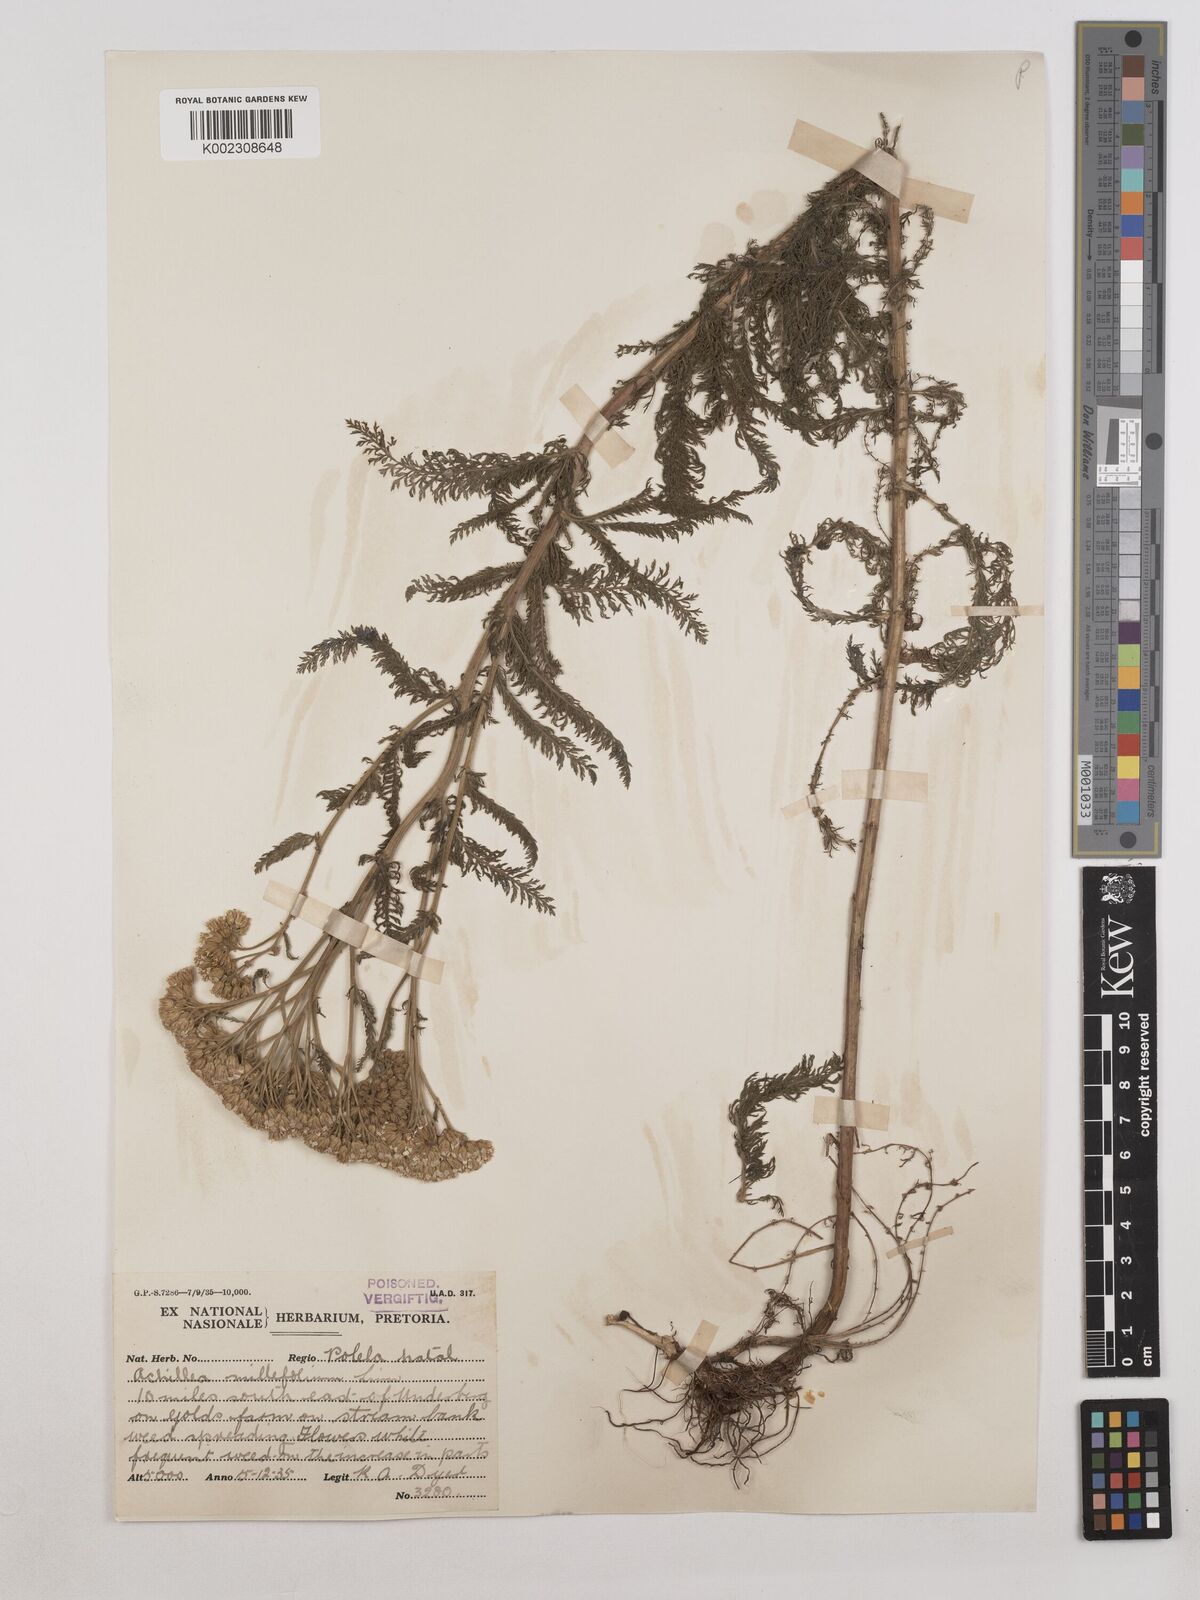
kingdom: Plantae
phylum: Tracheophyta
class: Magnoliopsida
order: Asterales
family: Asteraceae
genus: Achillea
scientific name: Achillea millefolium
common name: Yarrow
